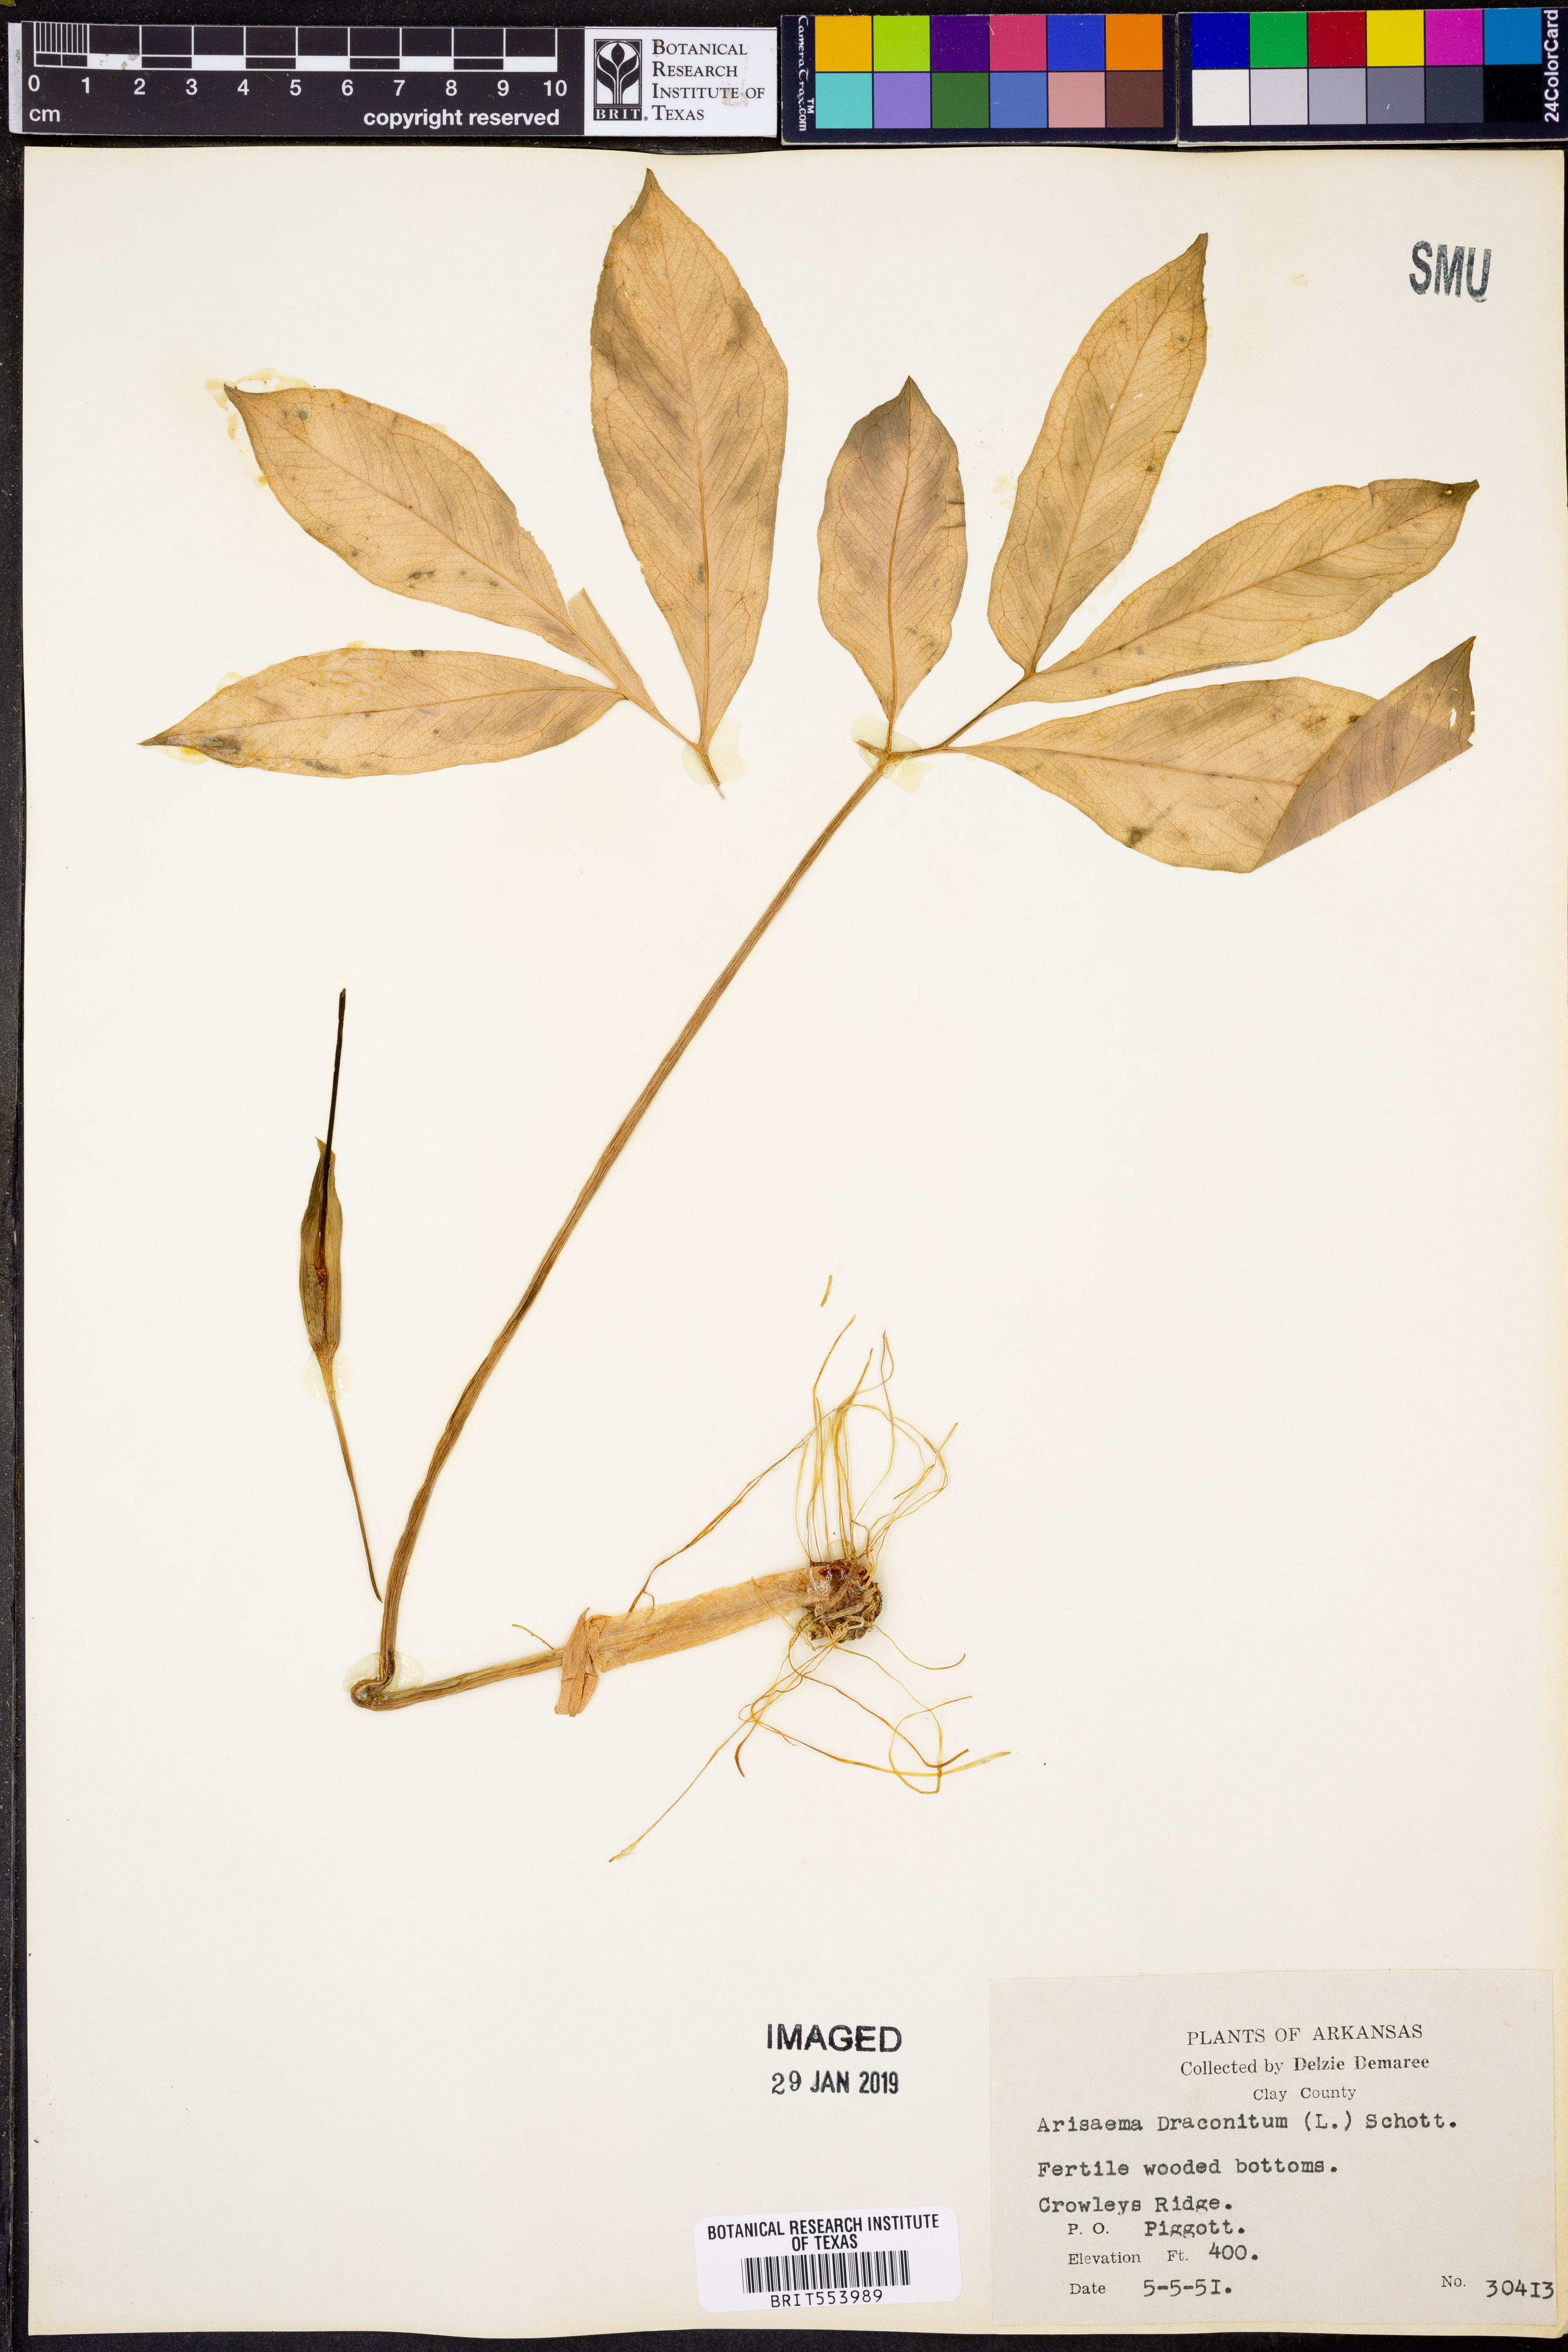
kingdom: Plantae
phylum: Tracheophyta
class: Liliopsida
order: Alismatales
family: Araceae
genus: Arisaema
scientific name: Arisaema dracontium
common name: Dragon-arum
